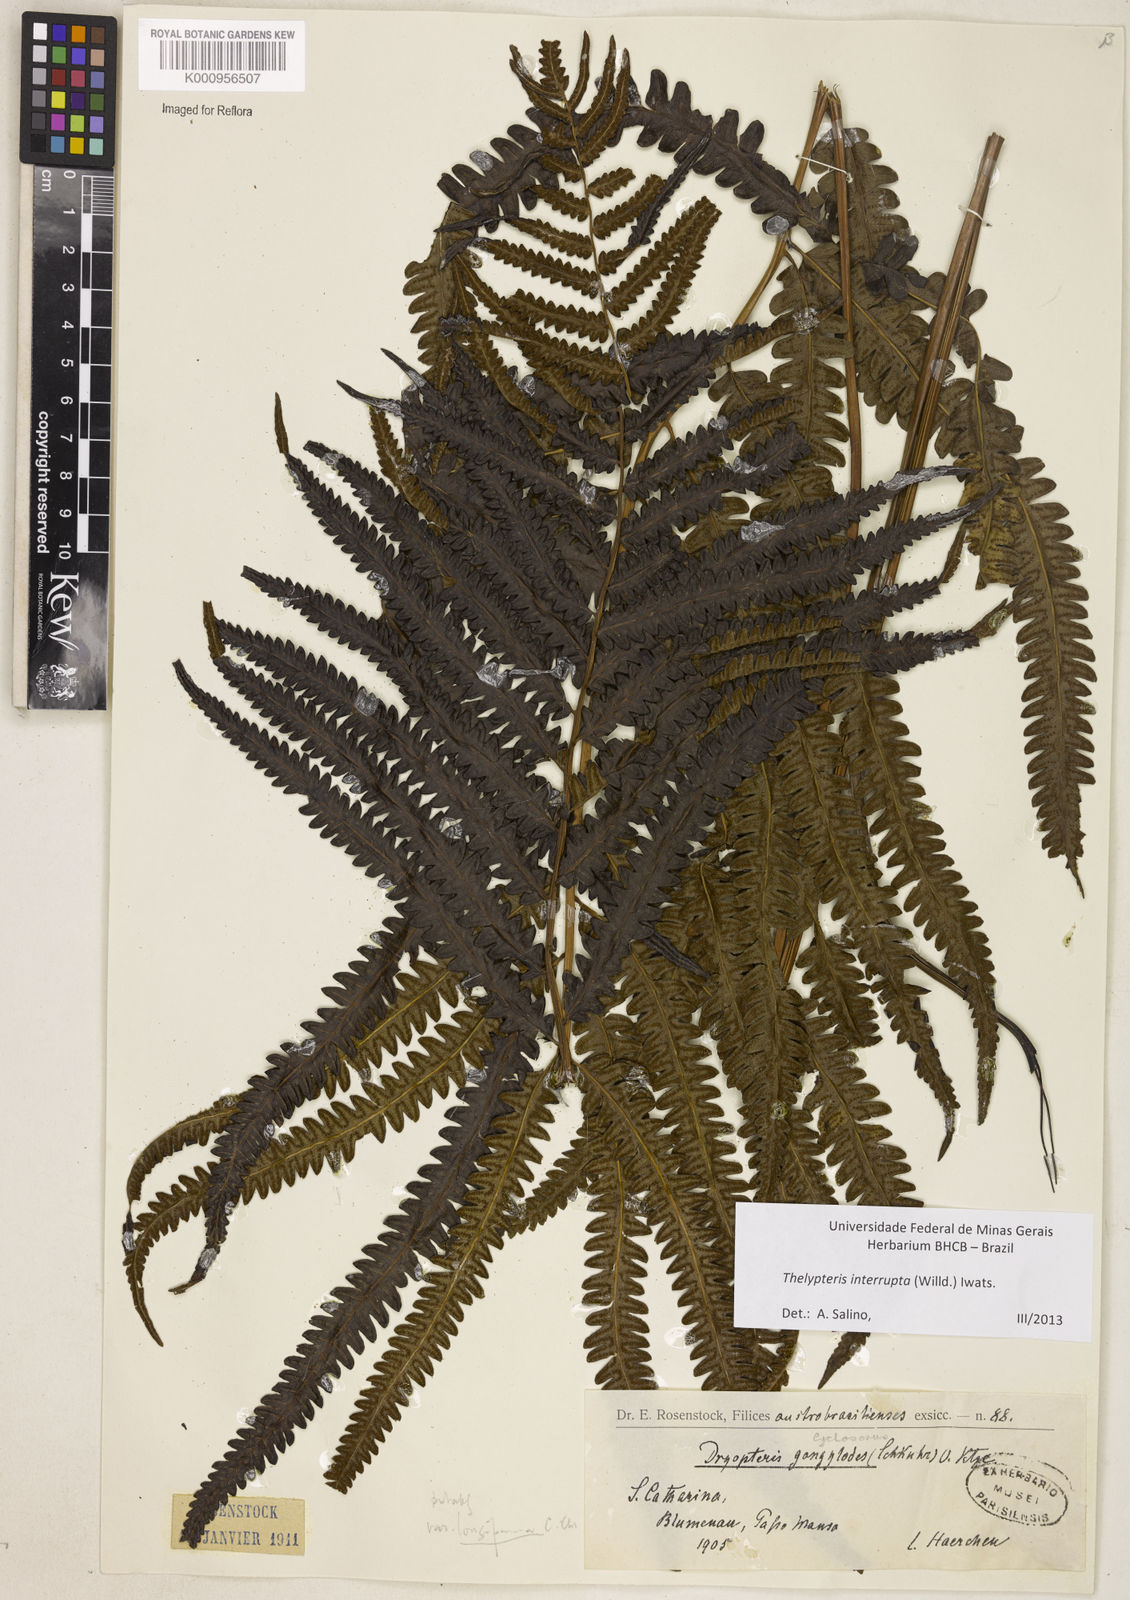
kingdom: Plantae
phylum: Tracheophyta
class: Polypodiopsida
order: Polypodiales
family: Thelypteridaceae
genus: Cyclosorus
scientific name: Cyclosorus interruptus
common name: Neke fern
